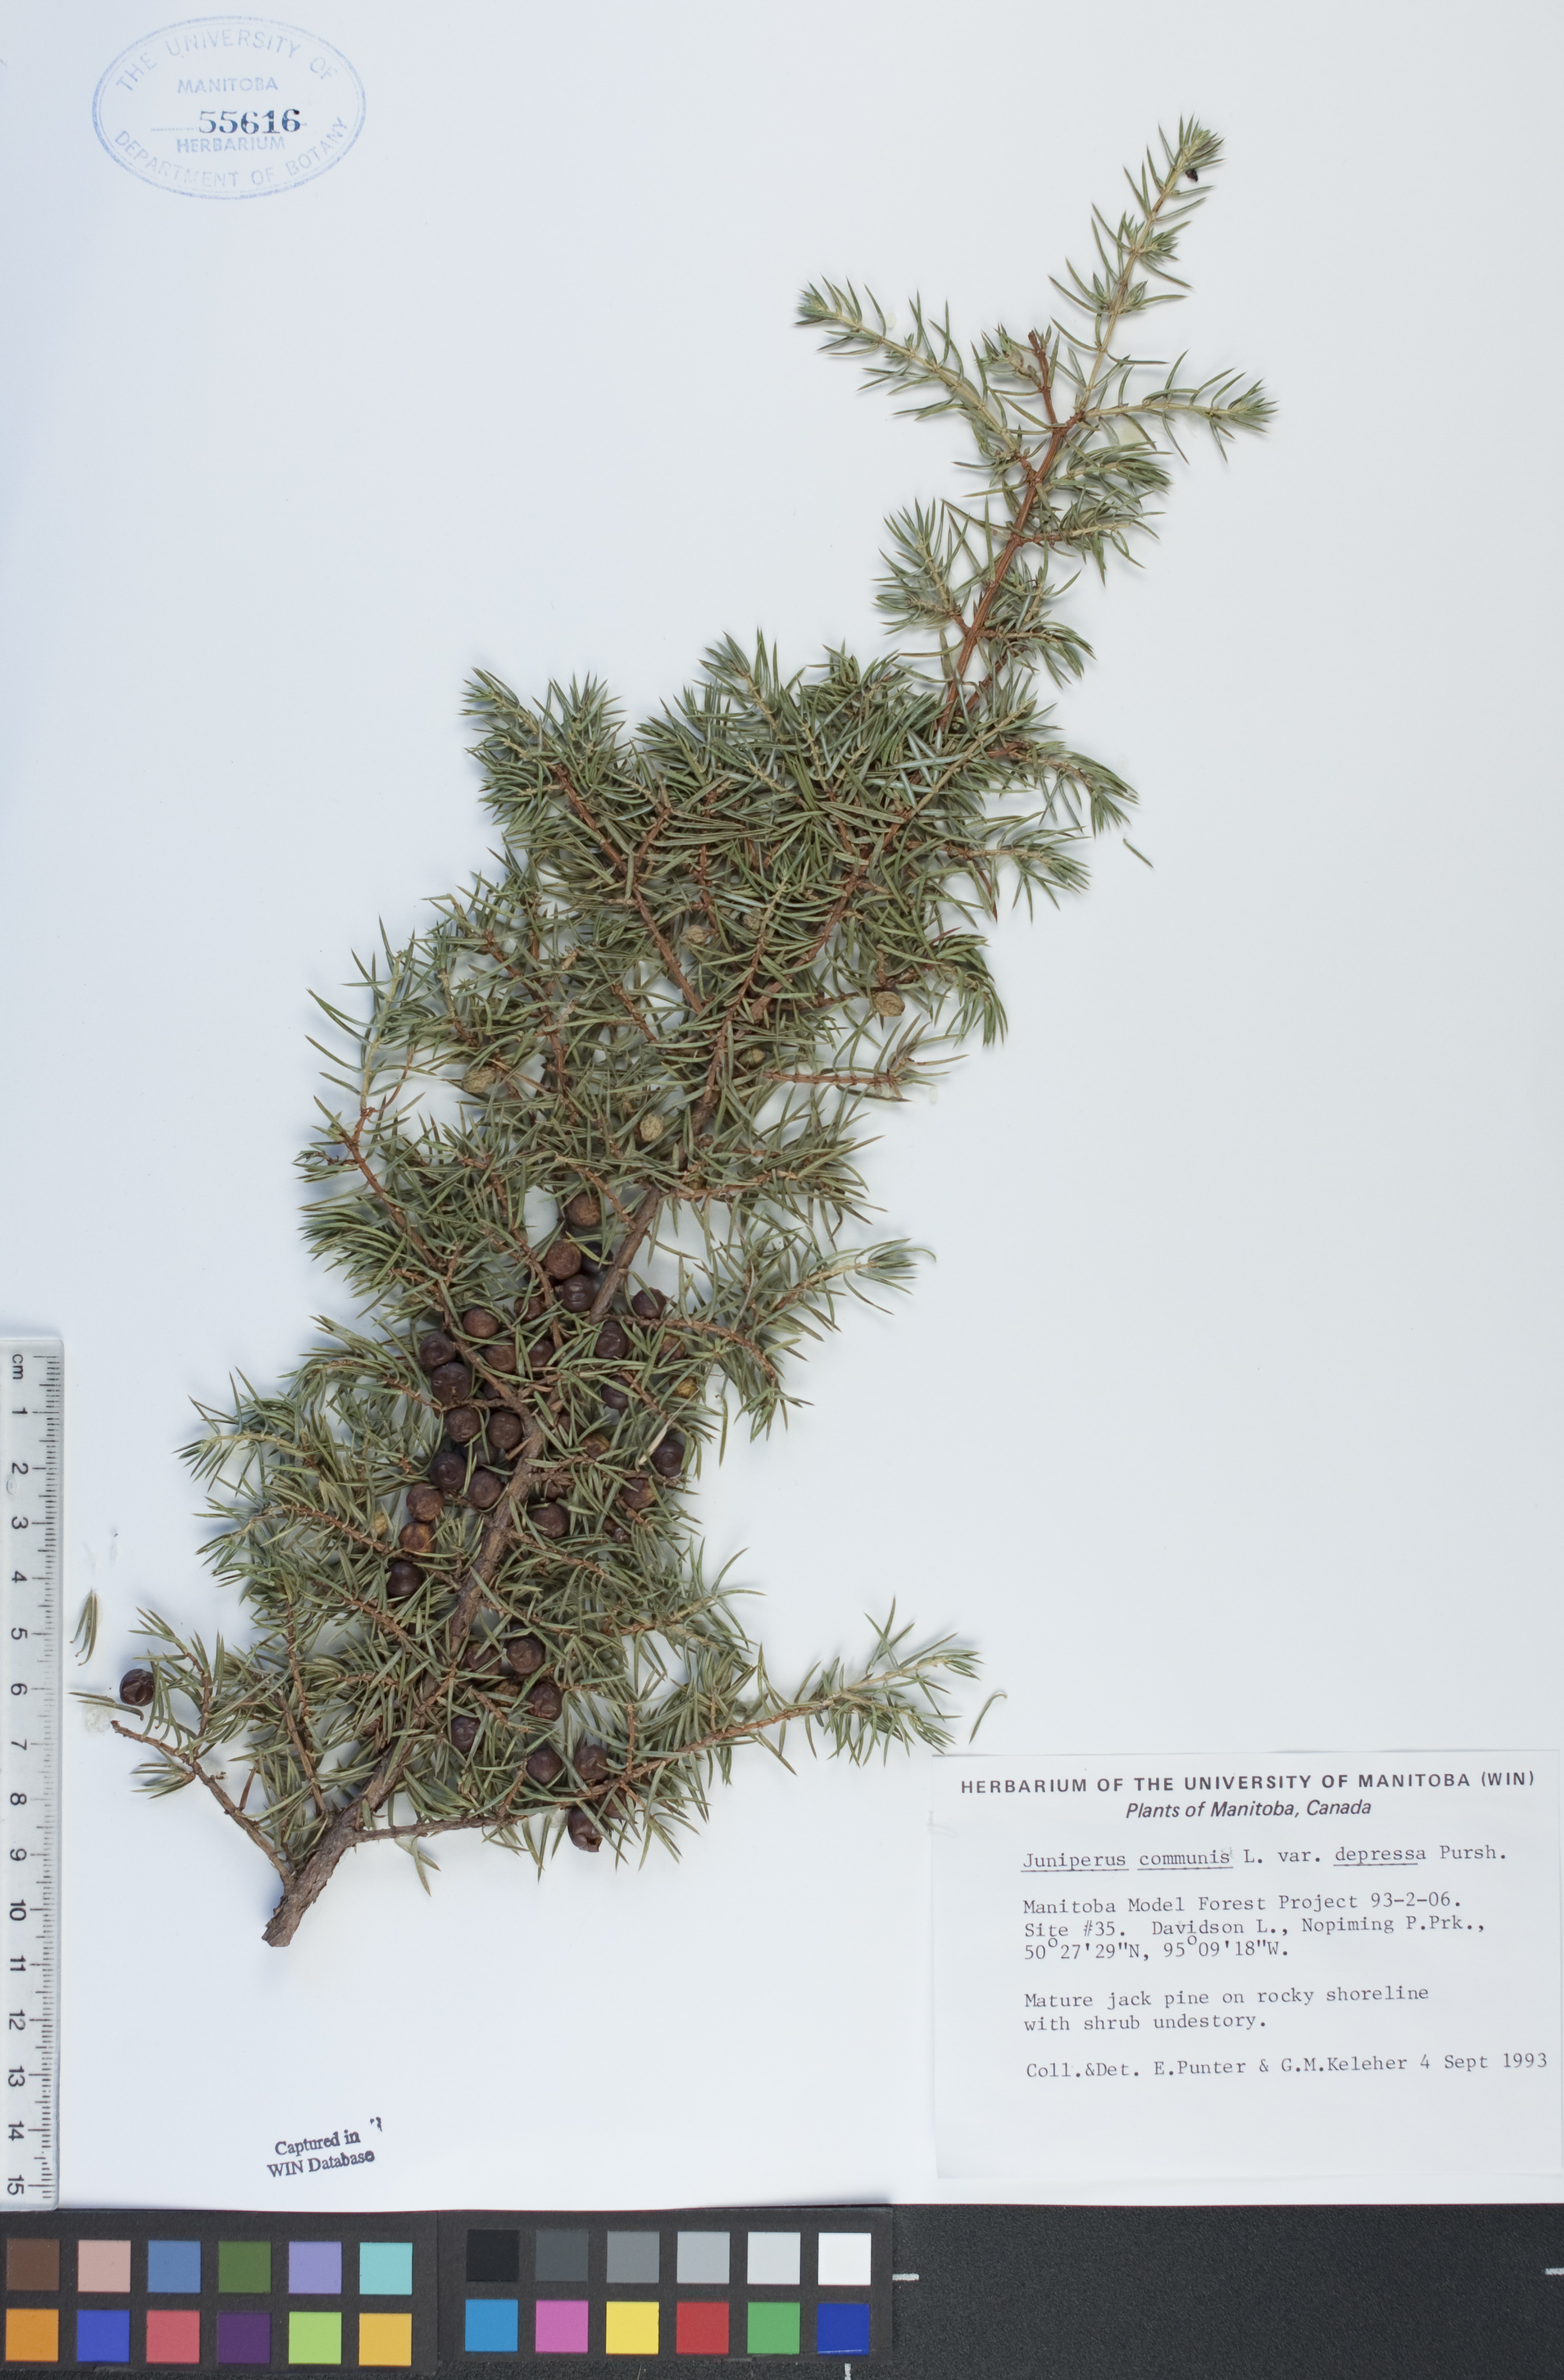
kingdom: Plantae
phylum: Tracheophyta
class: Pinopsida
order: Pinales
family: Cupressaceae
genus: Juniperus
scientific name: Juniperus communis
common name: Common juniper
